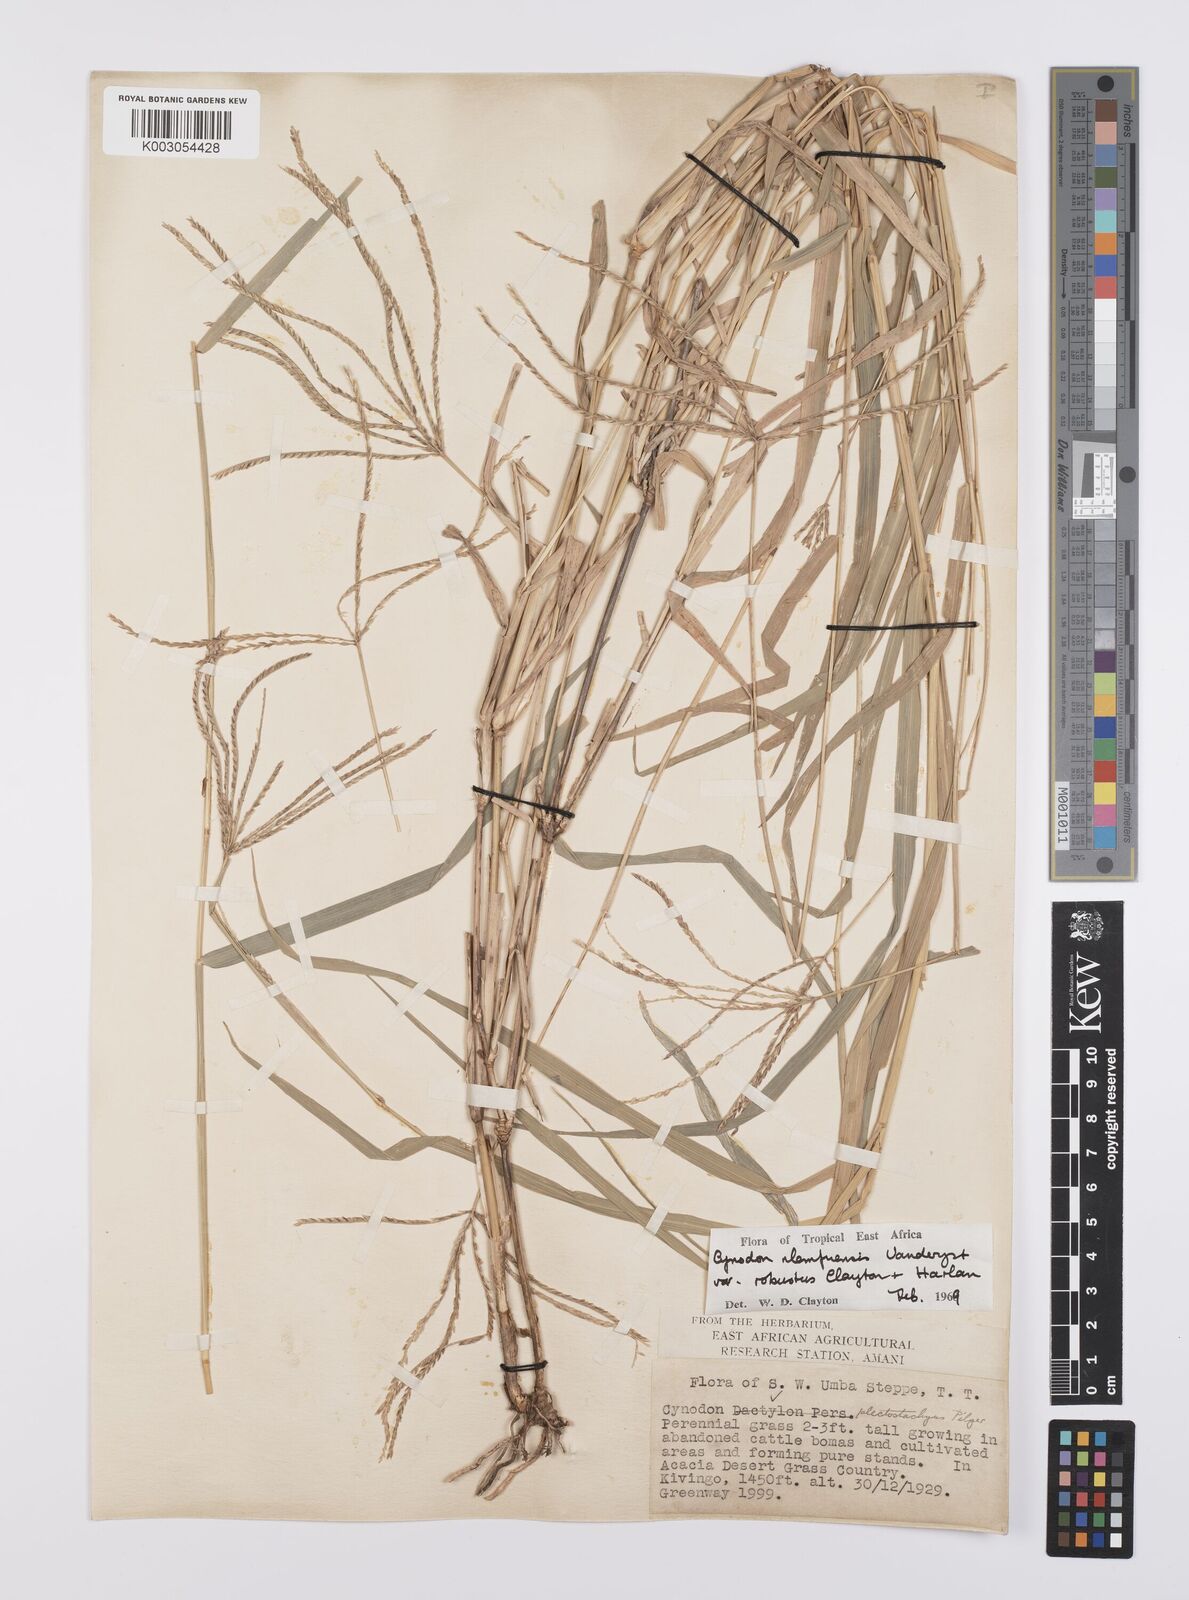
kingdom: Plantae
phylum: Tracheophyta
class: Liliopsida
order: Poales
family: Poaceae
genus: Cynodon
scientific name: Cynodon nlemfuensis
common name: African bermudagrass
